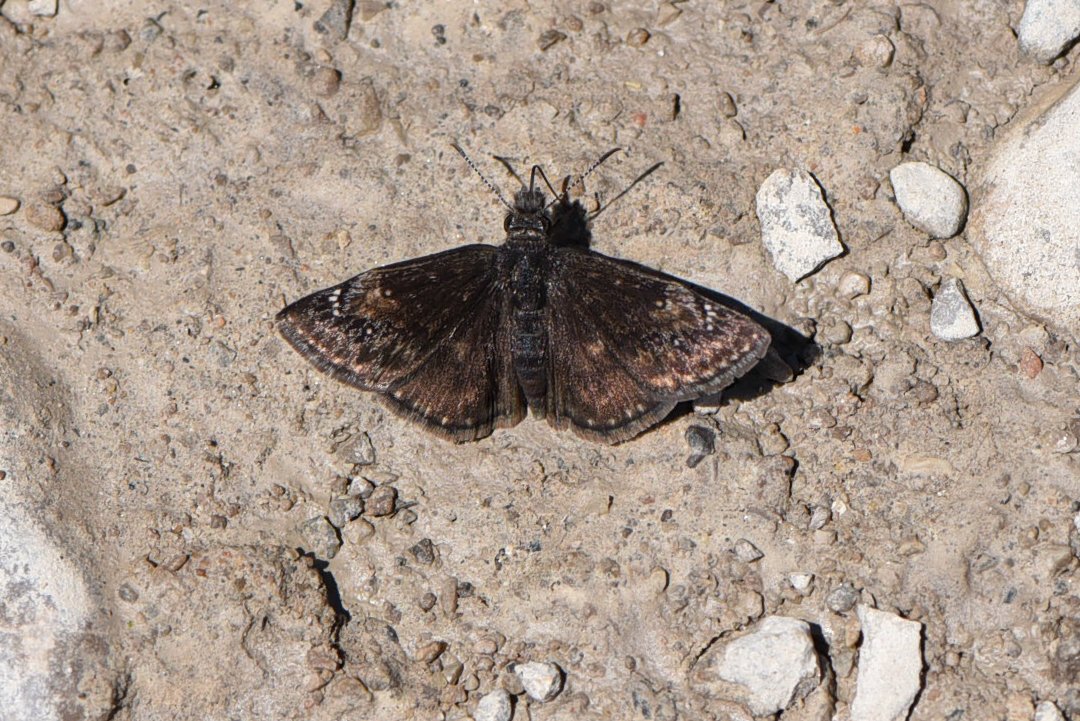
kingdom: Animalia
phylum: Arthropoda
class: Insecta
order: Lepidoptera
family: Hesperiidae
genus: Gesta
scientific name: Gesta
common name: Columbine Duskywing
